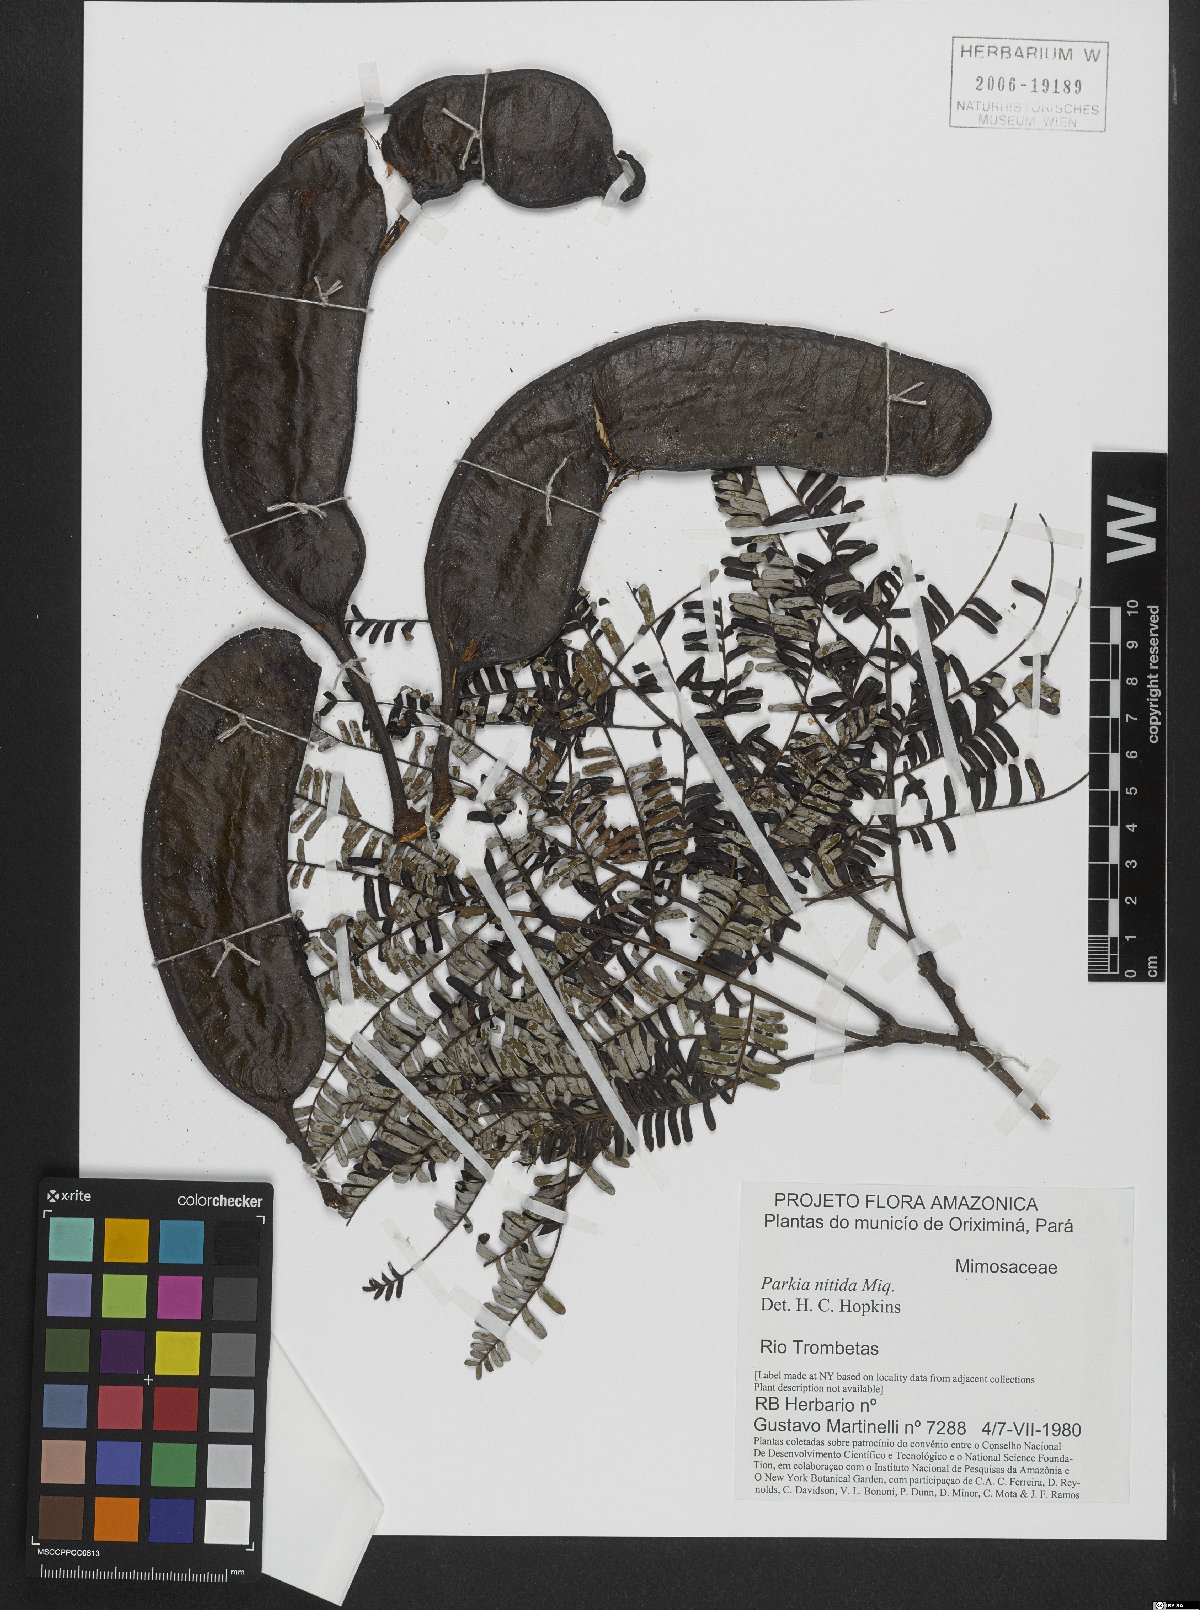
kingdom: Plantae
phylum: Tracheophyta
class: Magnoliopsida
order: Fabales
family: Fabaceae
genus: Parkia
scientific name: Parkia nitida
